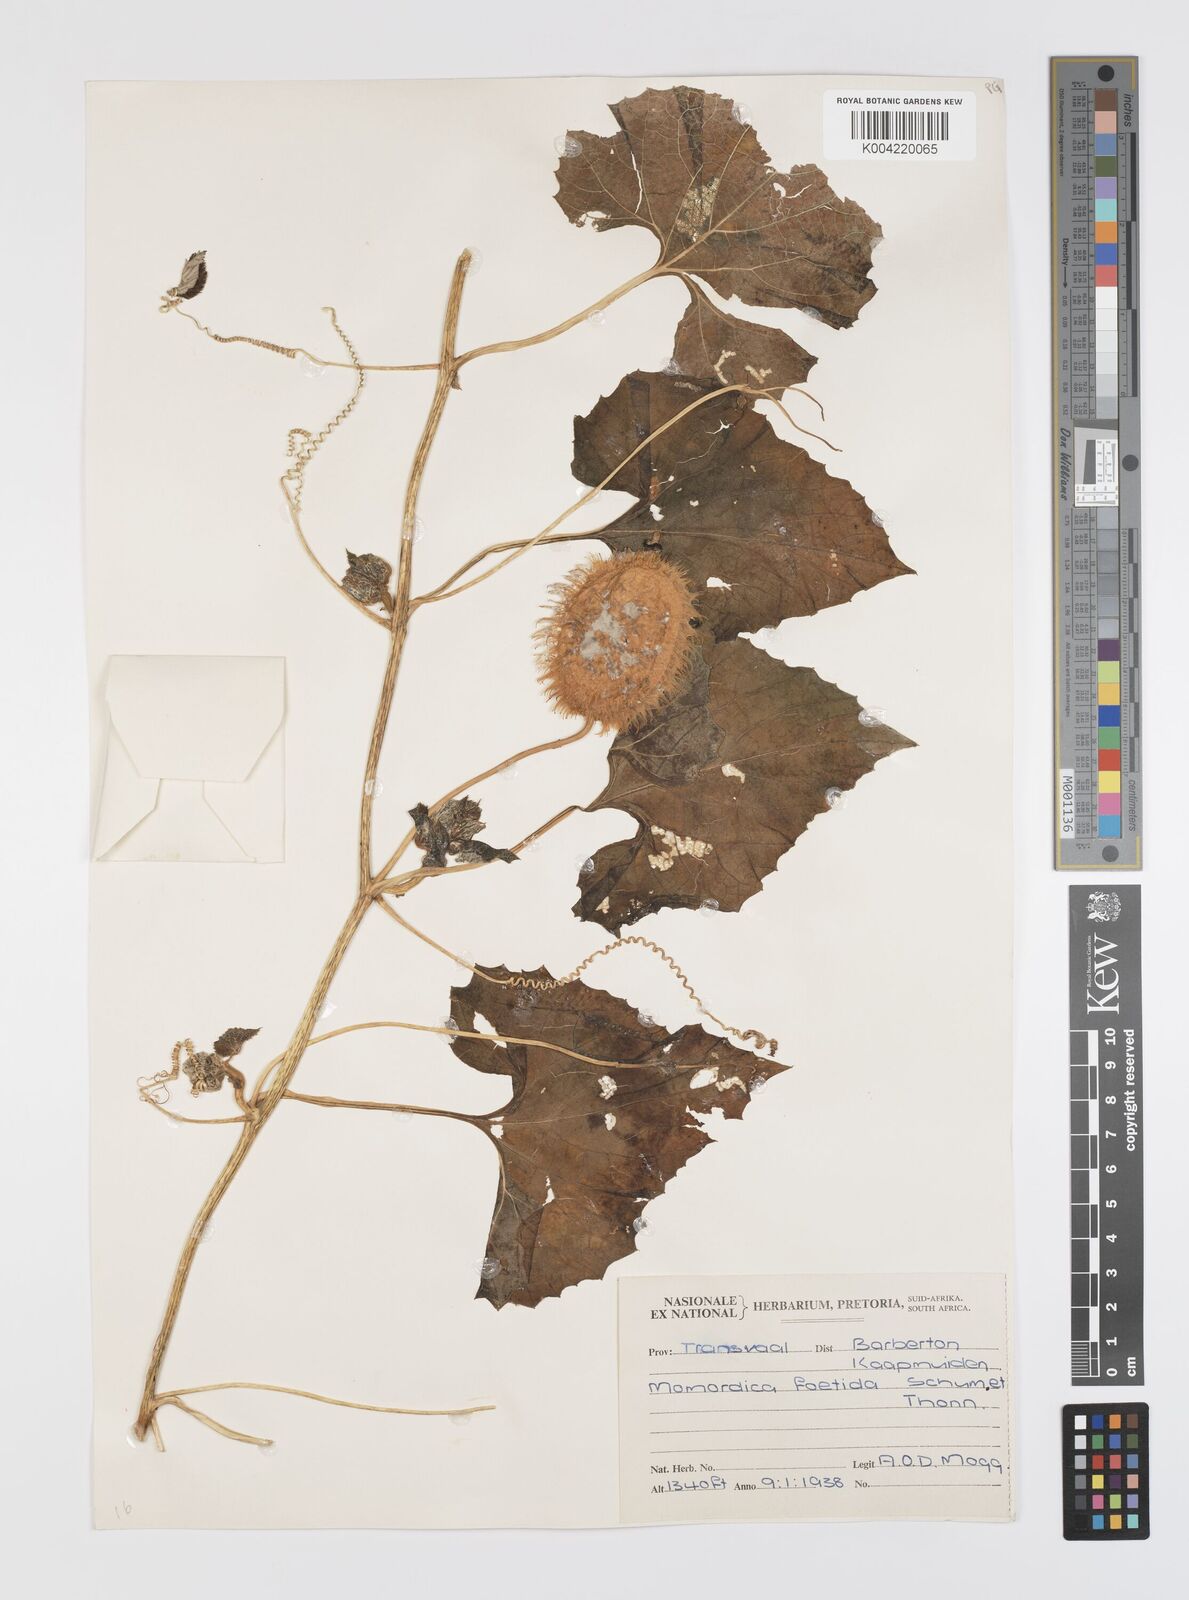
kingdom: Plantae
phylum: Tracheophyta
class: Magnoliopsida
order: Cucurbitales
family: Cucurbitaceae
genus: Momordica
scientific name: Momordica foetida
